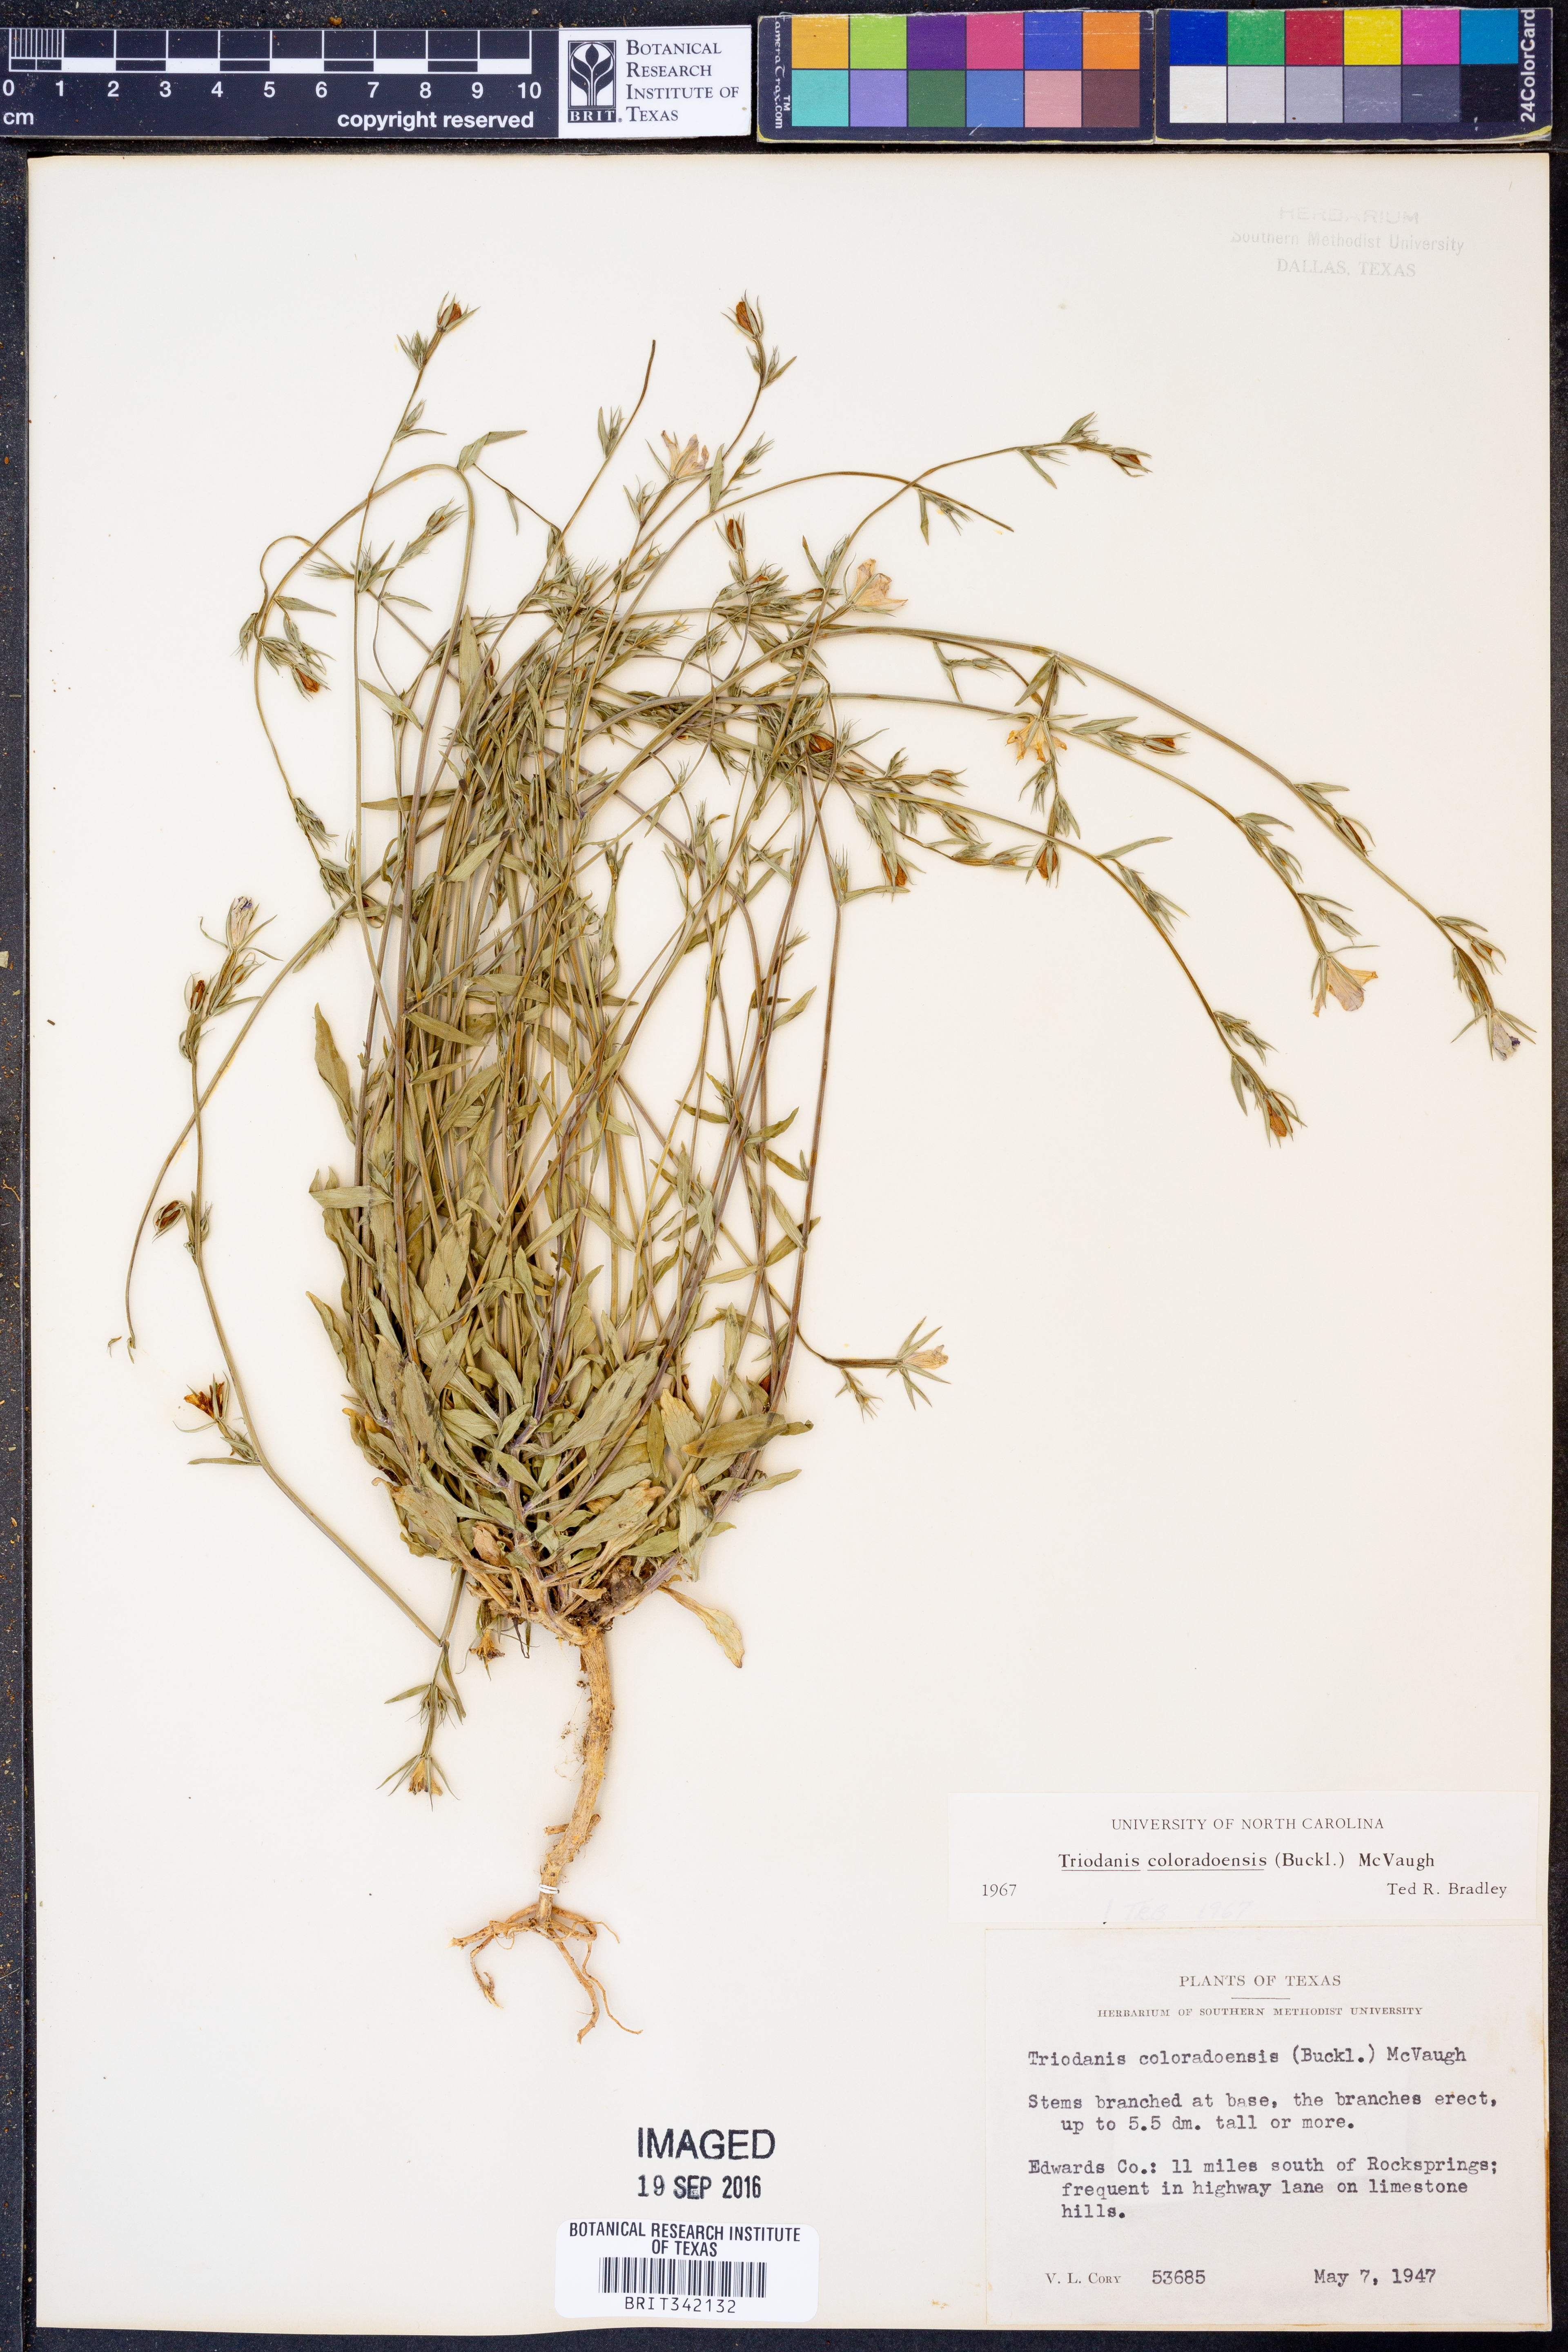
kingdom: Plantae
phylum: Tracheophyta
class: Magnoliopsida
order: Asterales
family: Campanulaceae
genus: Triodanis
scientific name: Triodanis coloradoensis
